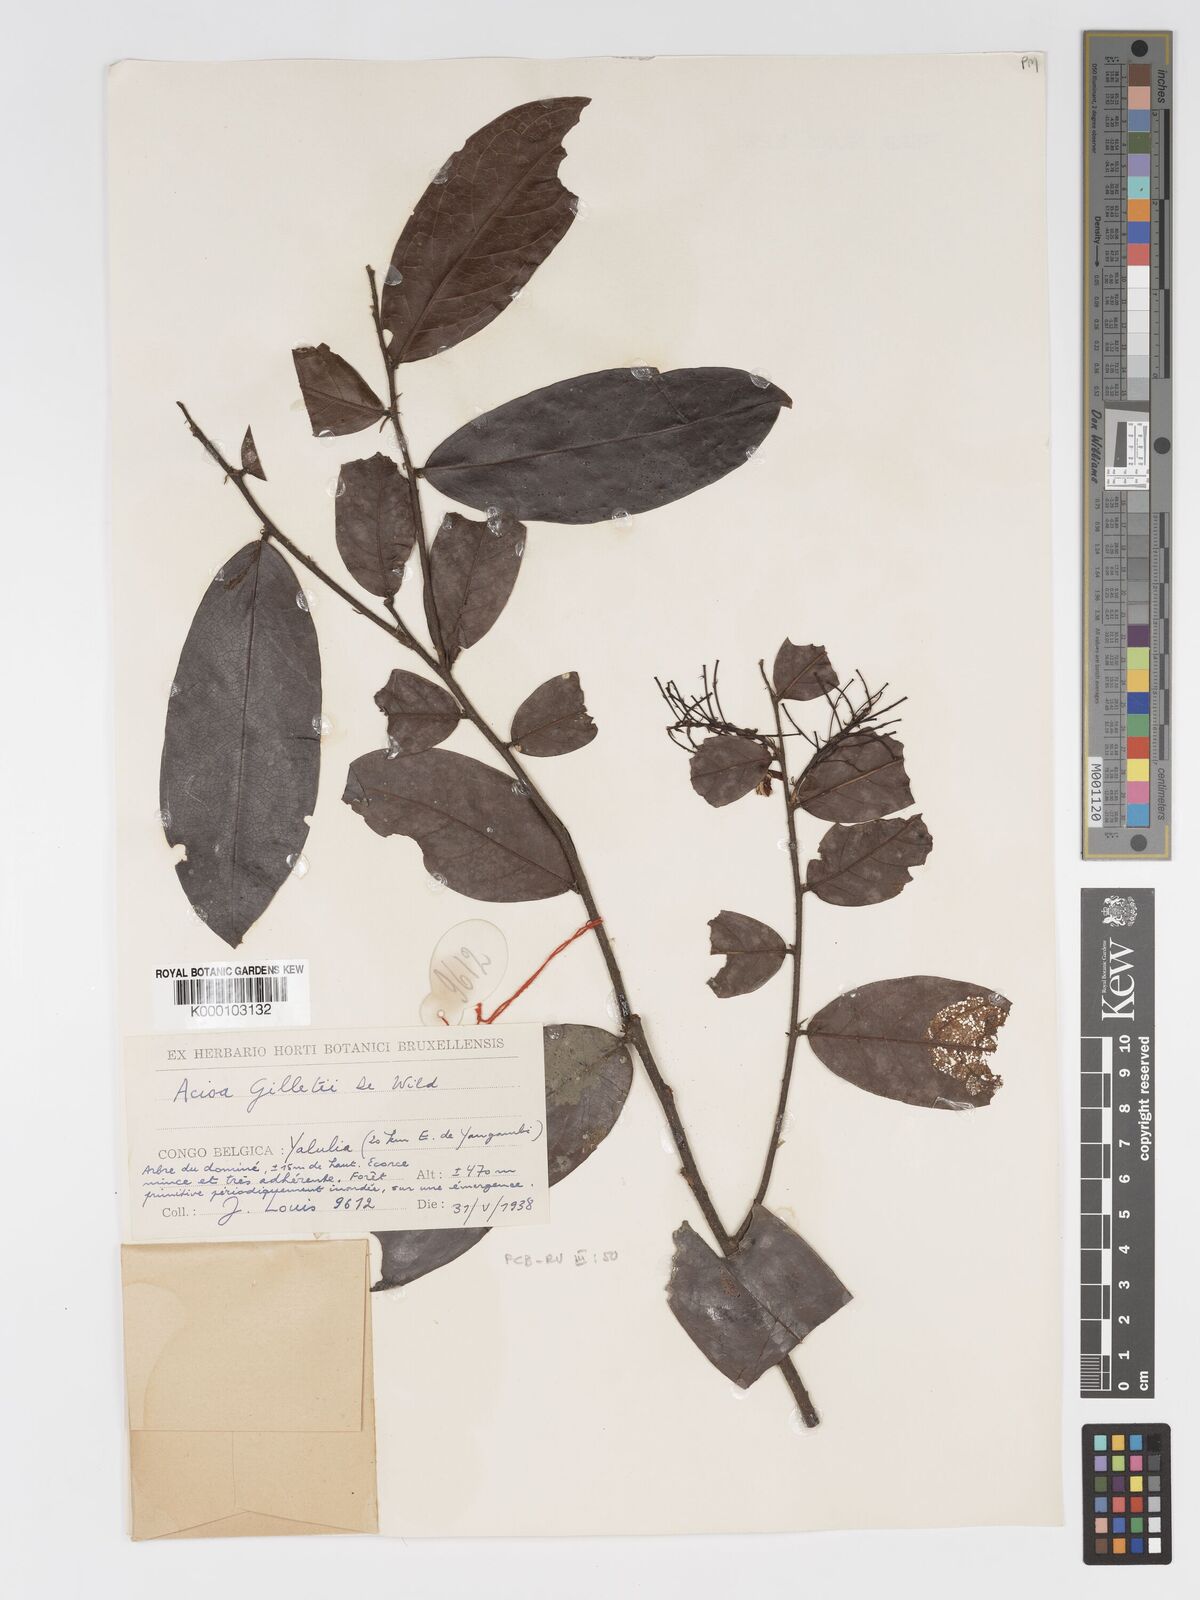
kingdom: Plantae
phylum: Tracheophyta
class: Magnoliopsida
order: Malpighiales
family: Chrysobalanaceae
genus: Dactyladenia
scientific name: Dactyladenia gilletii
